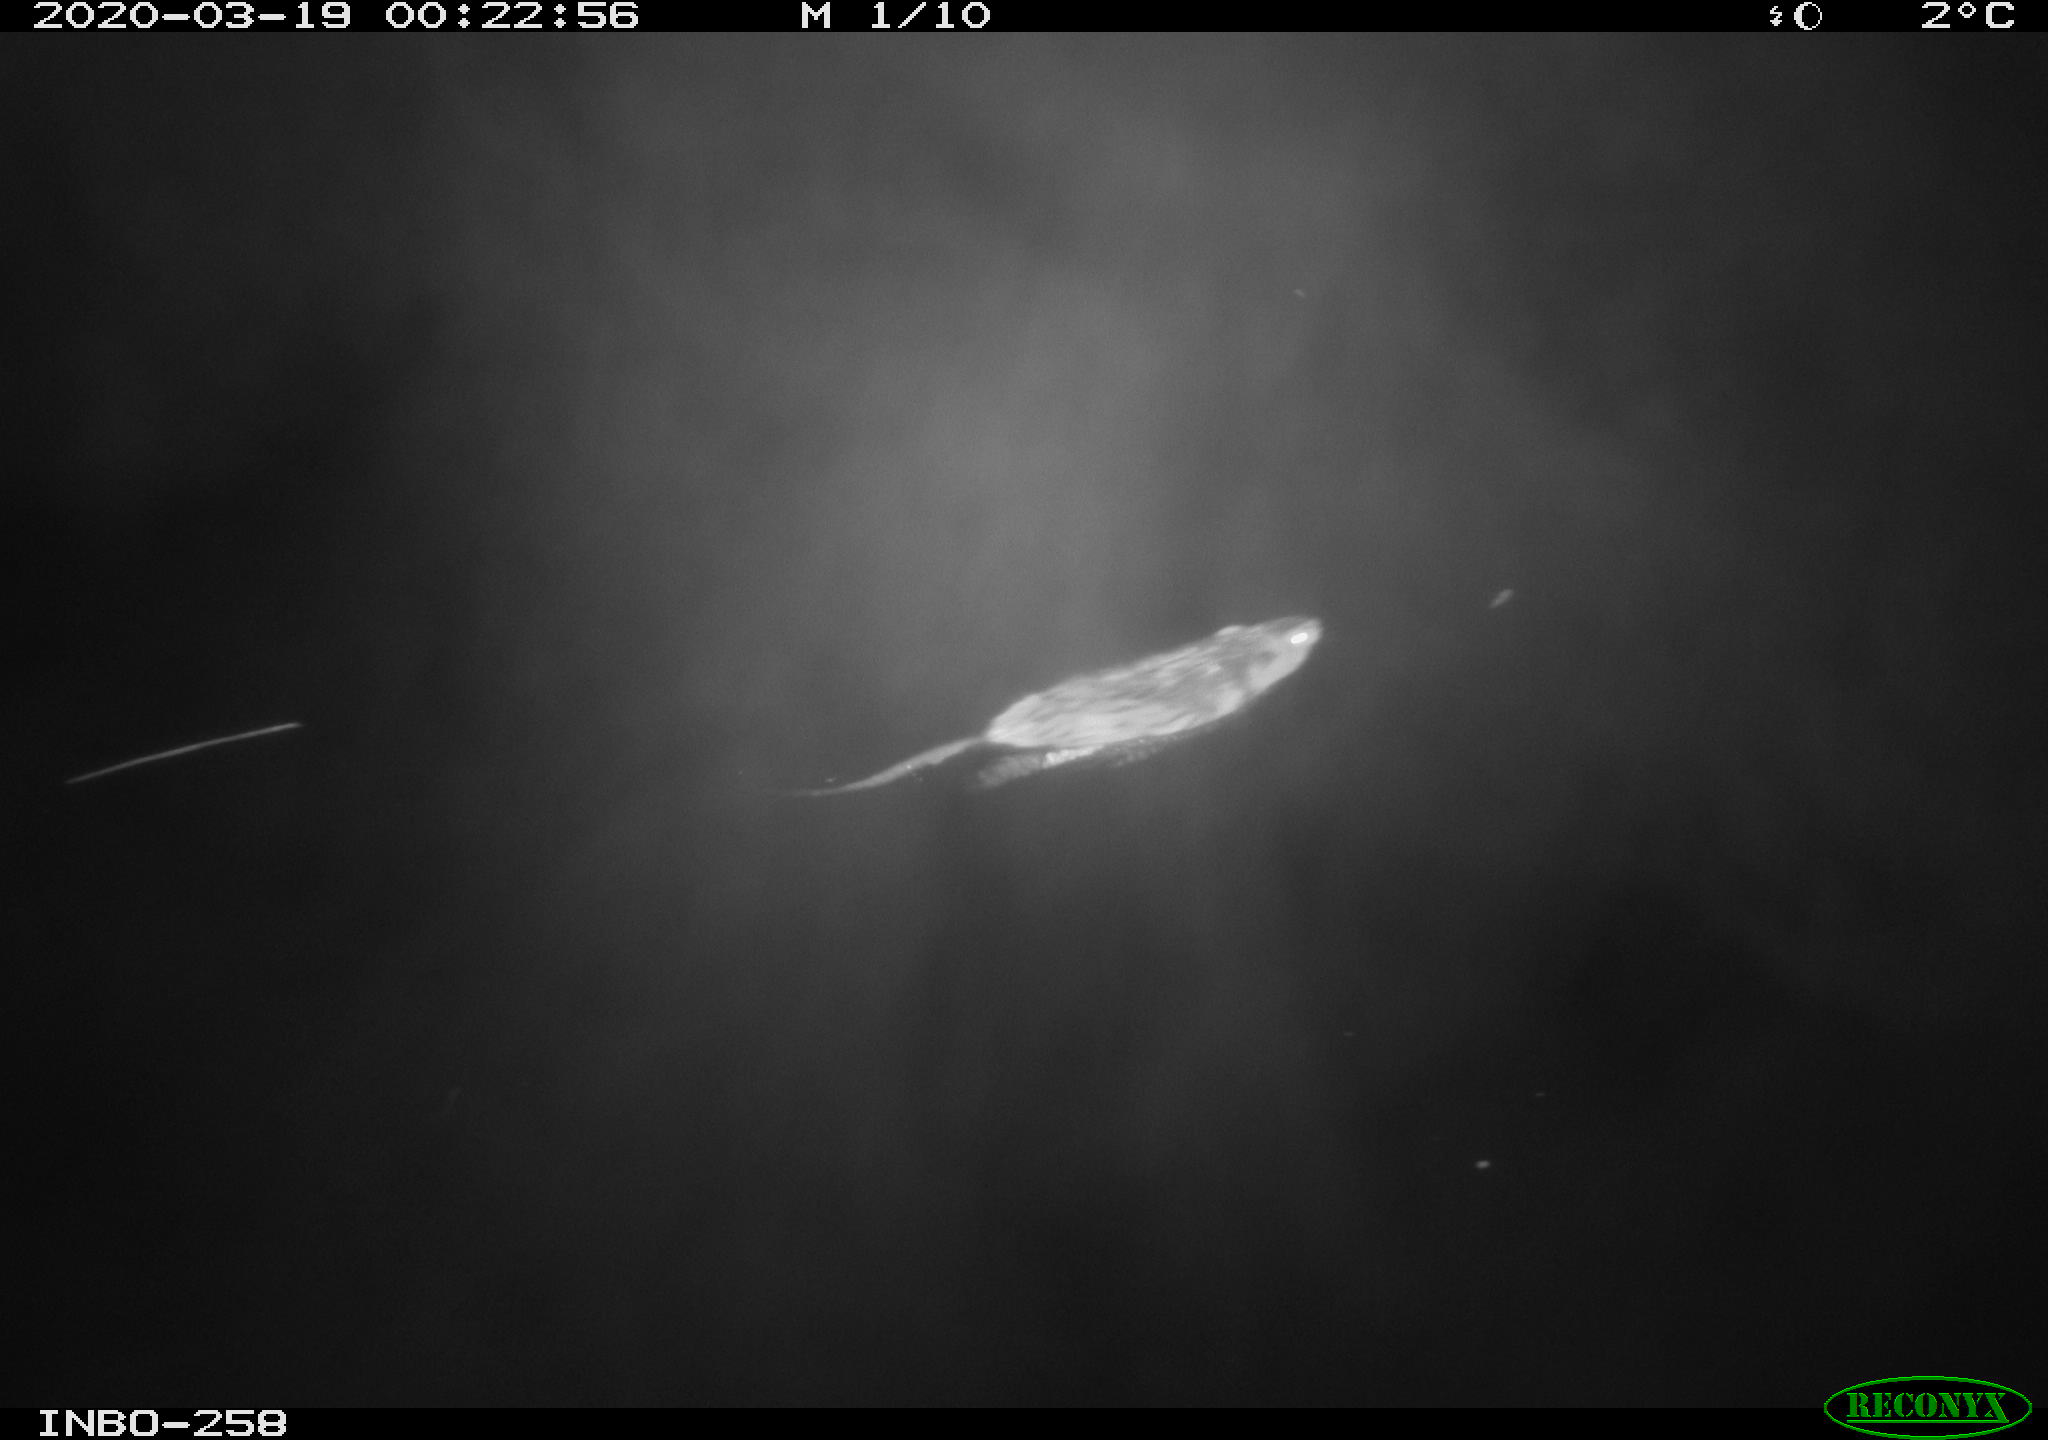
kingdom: Animalia
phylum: Chordata
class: Mammalia
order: Rodentia
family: Cricetidae
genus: Ondatra
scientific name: Ondatra zibethicus
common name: Muskrat
